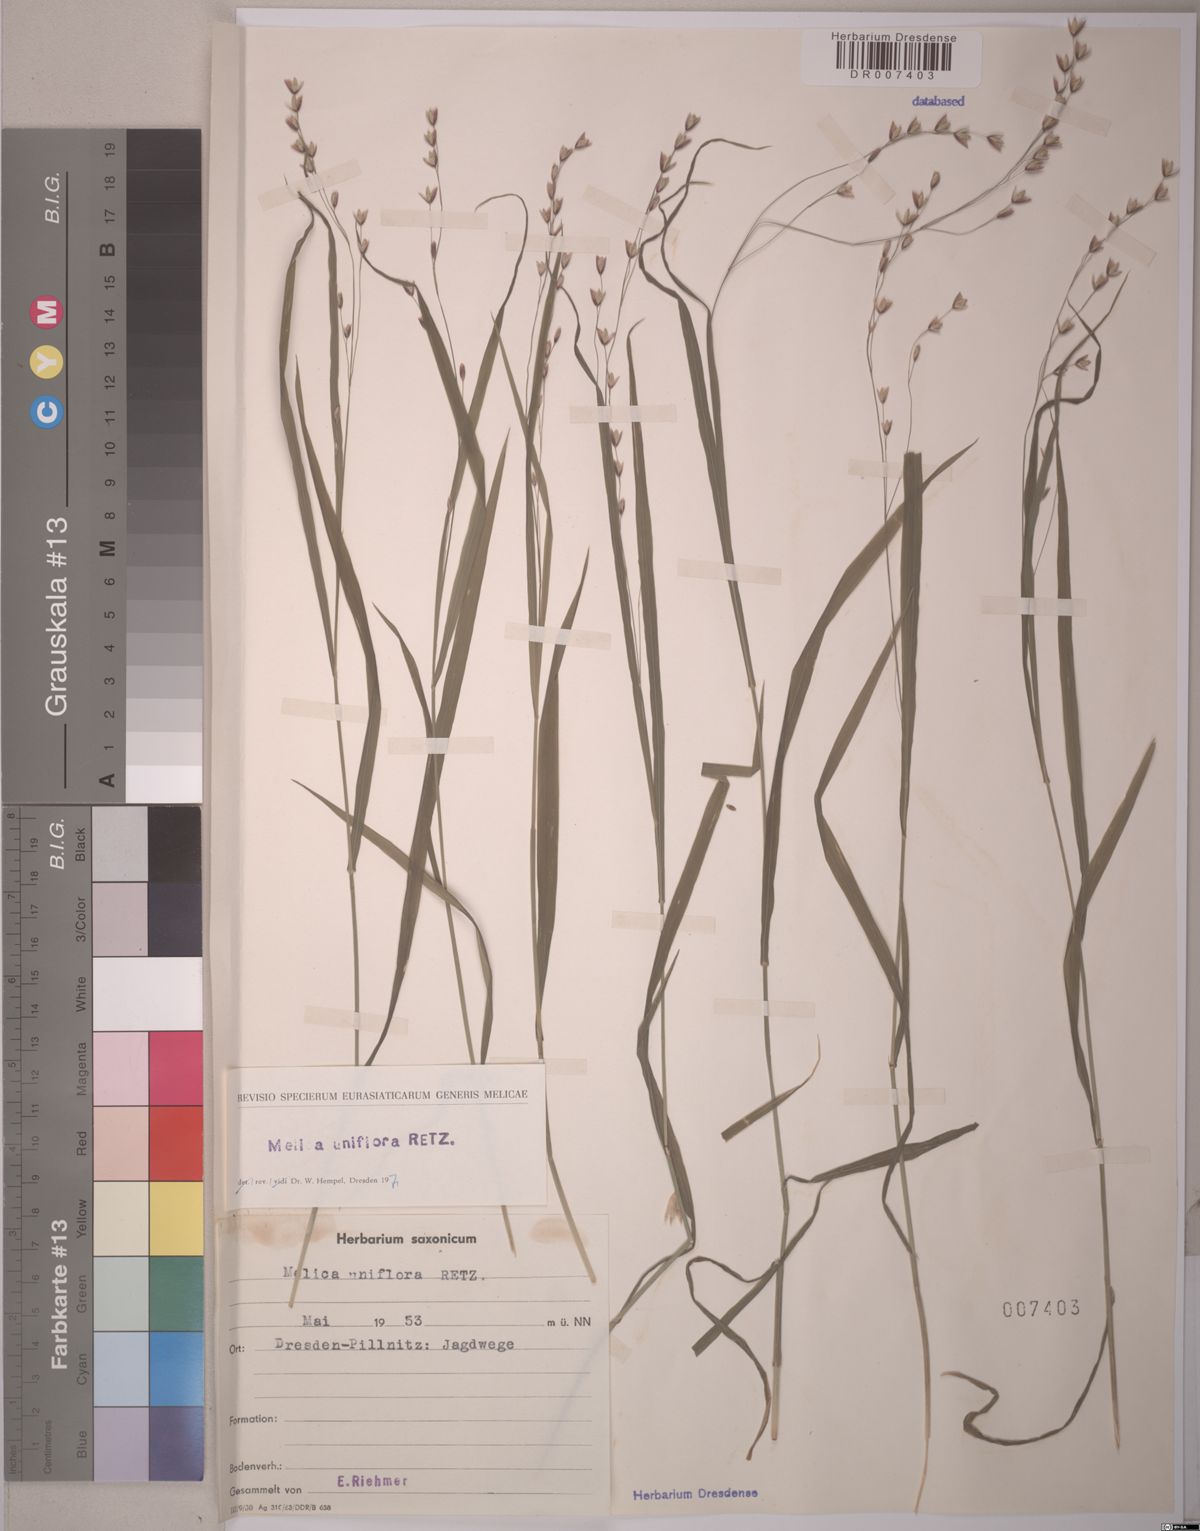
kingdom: Plantae
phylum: Tracheophyta
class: Liliopsida
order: Poales
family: Poaceae
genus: Melica
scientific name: Melica uniflora
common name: Wood melick
